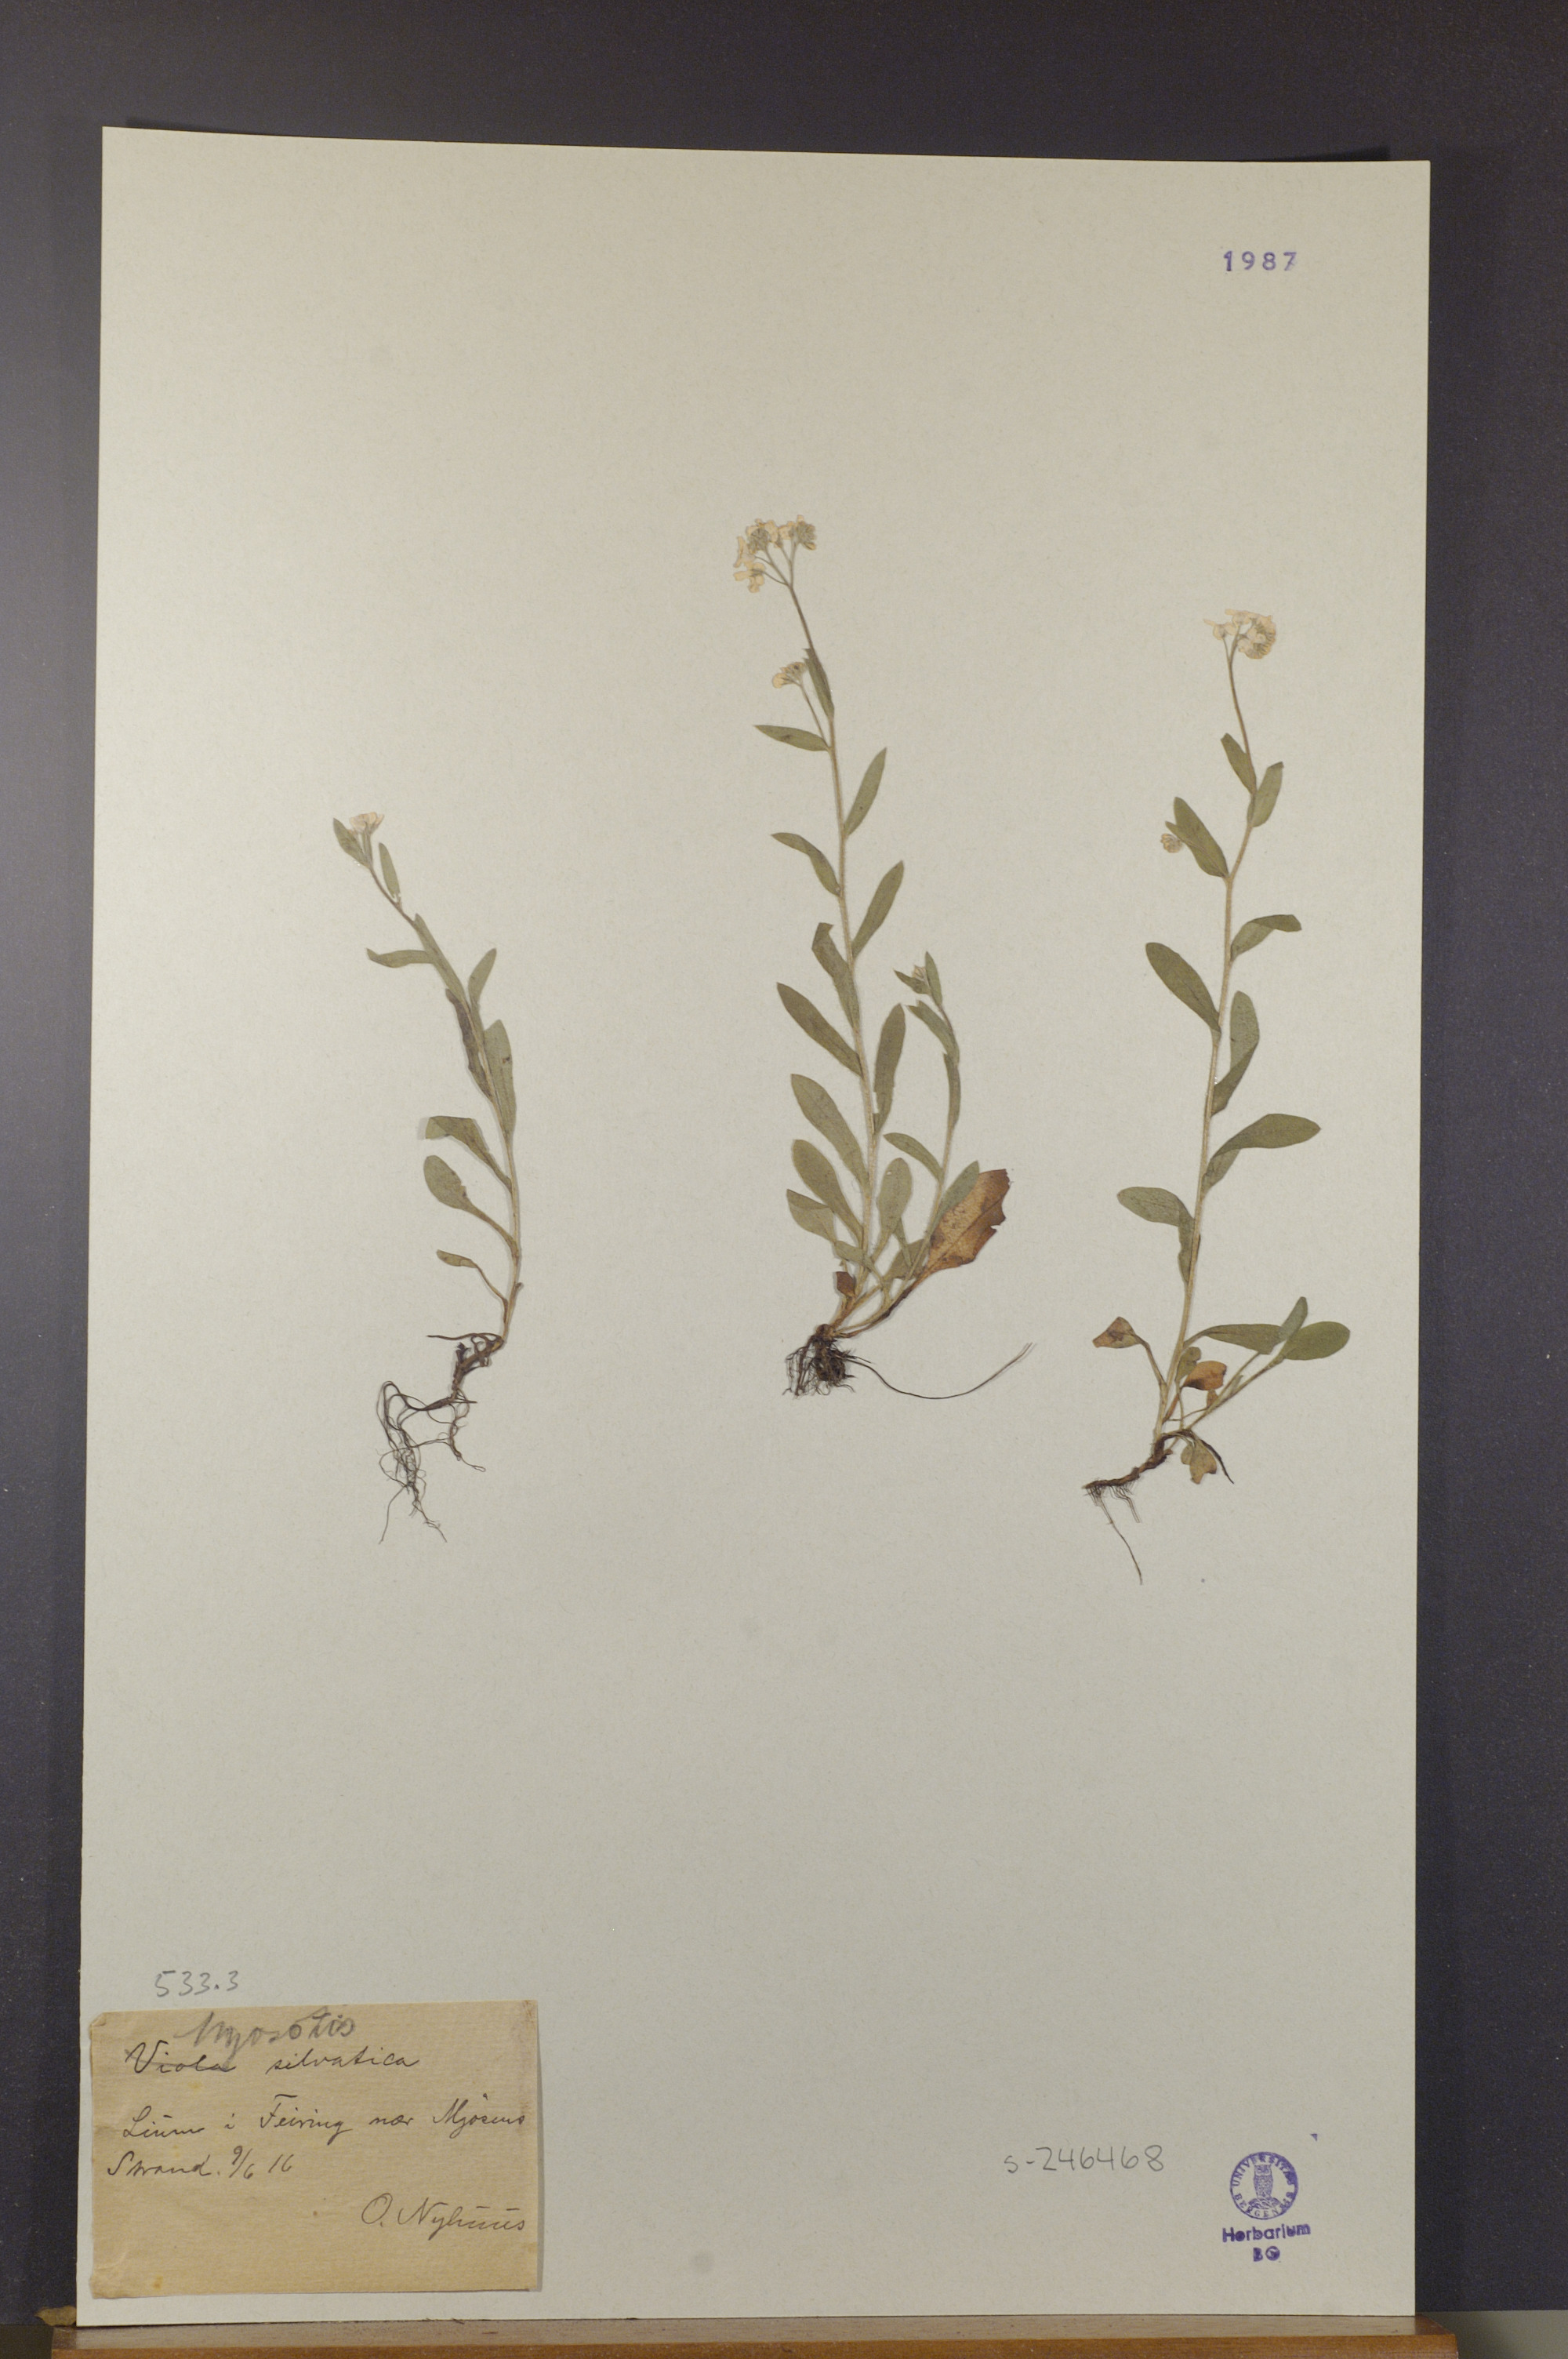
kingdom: Plantae
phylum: Tracheophyta
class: Magnoliopsida
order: Boraginales
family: Boraginaceae
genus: Myosotis
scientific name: Myosotis sylvatica
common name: Wood forget-me-not
